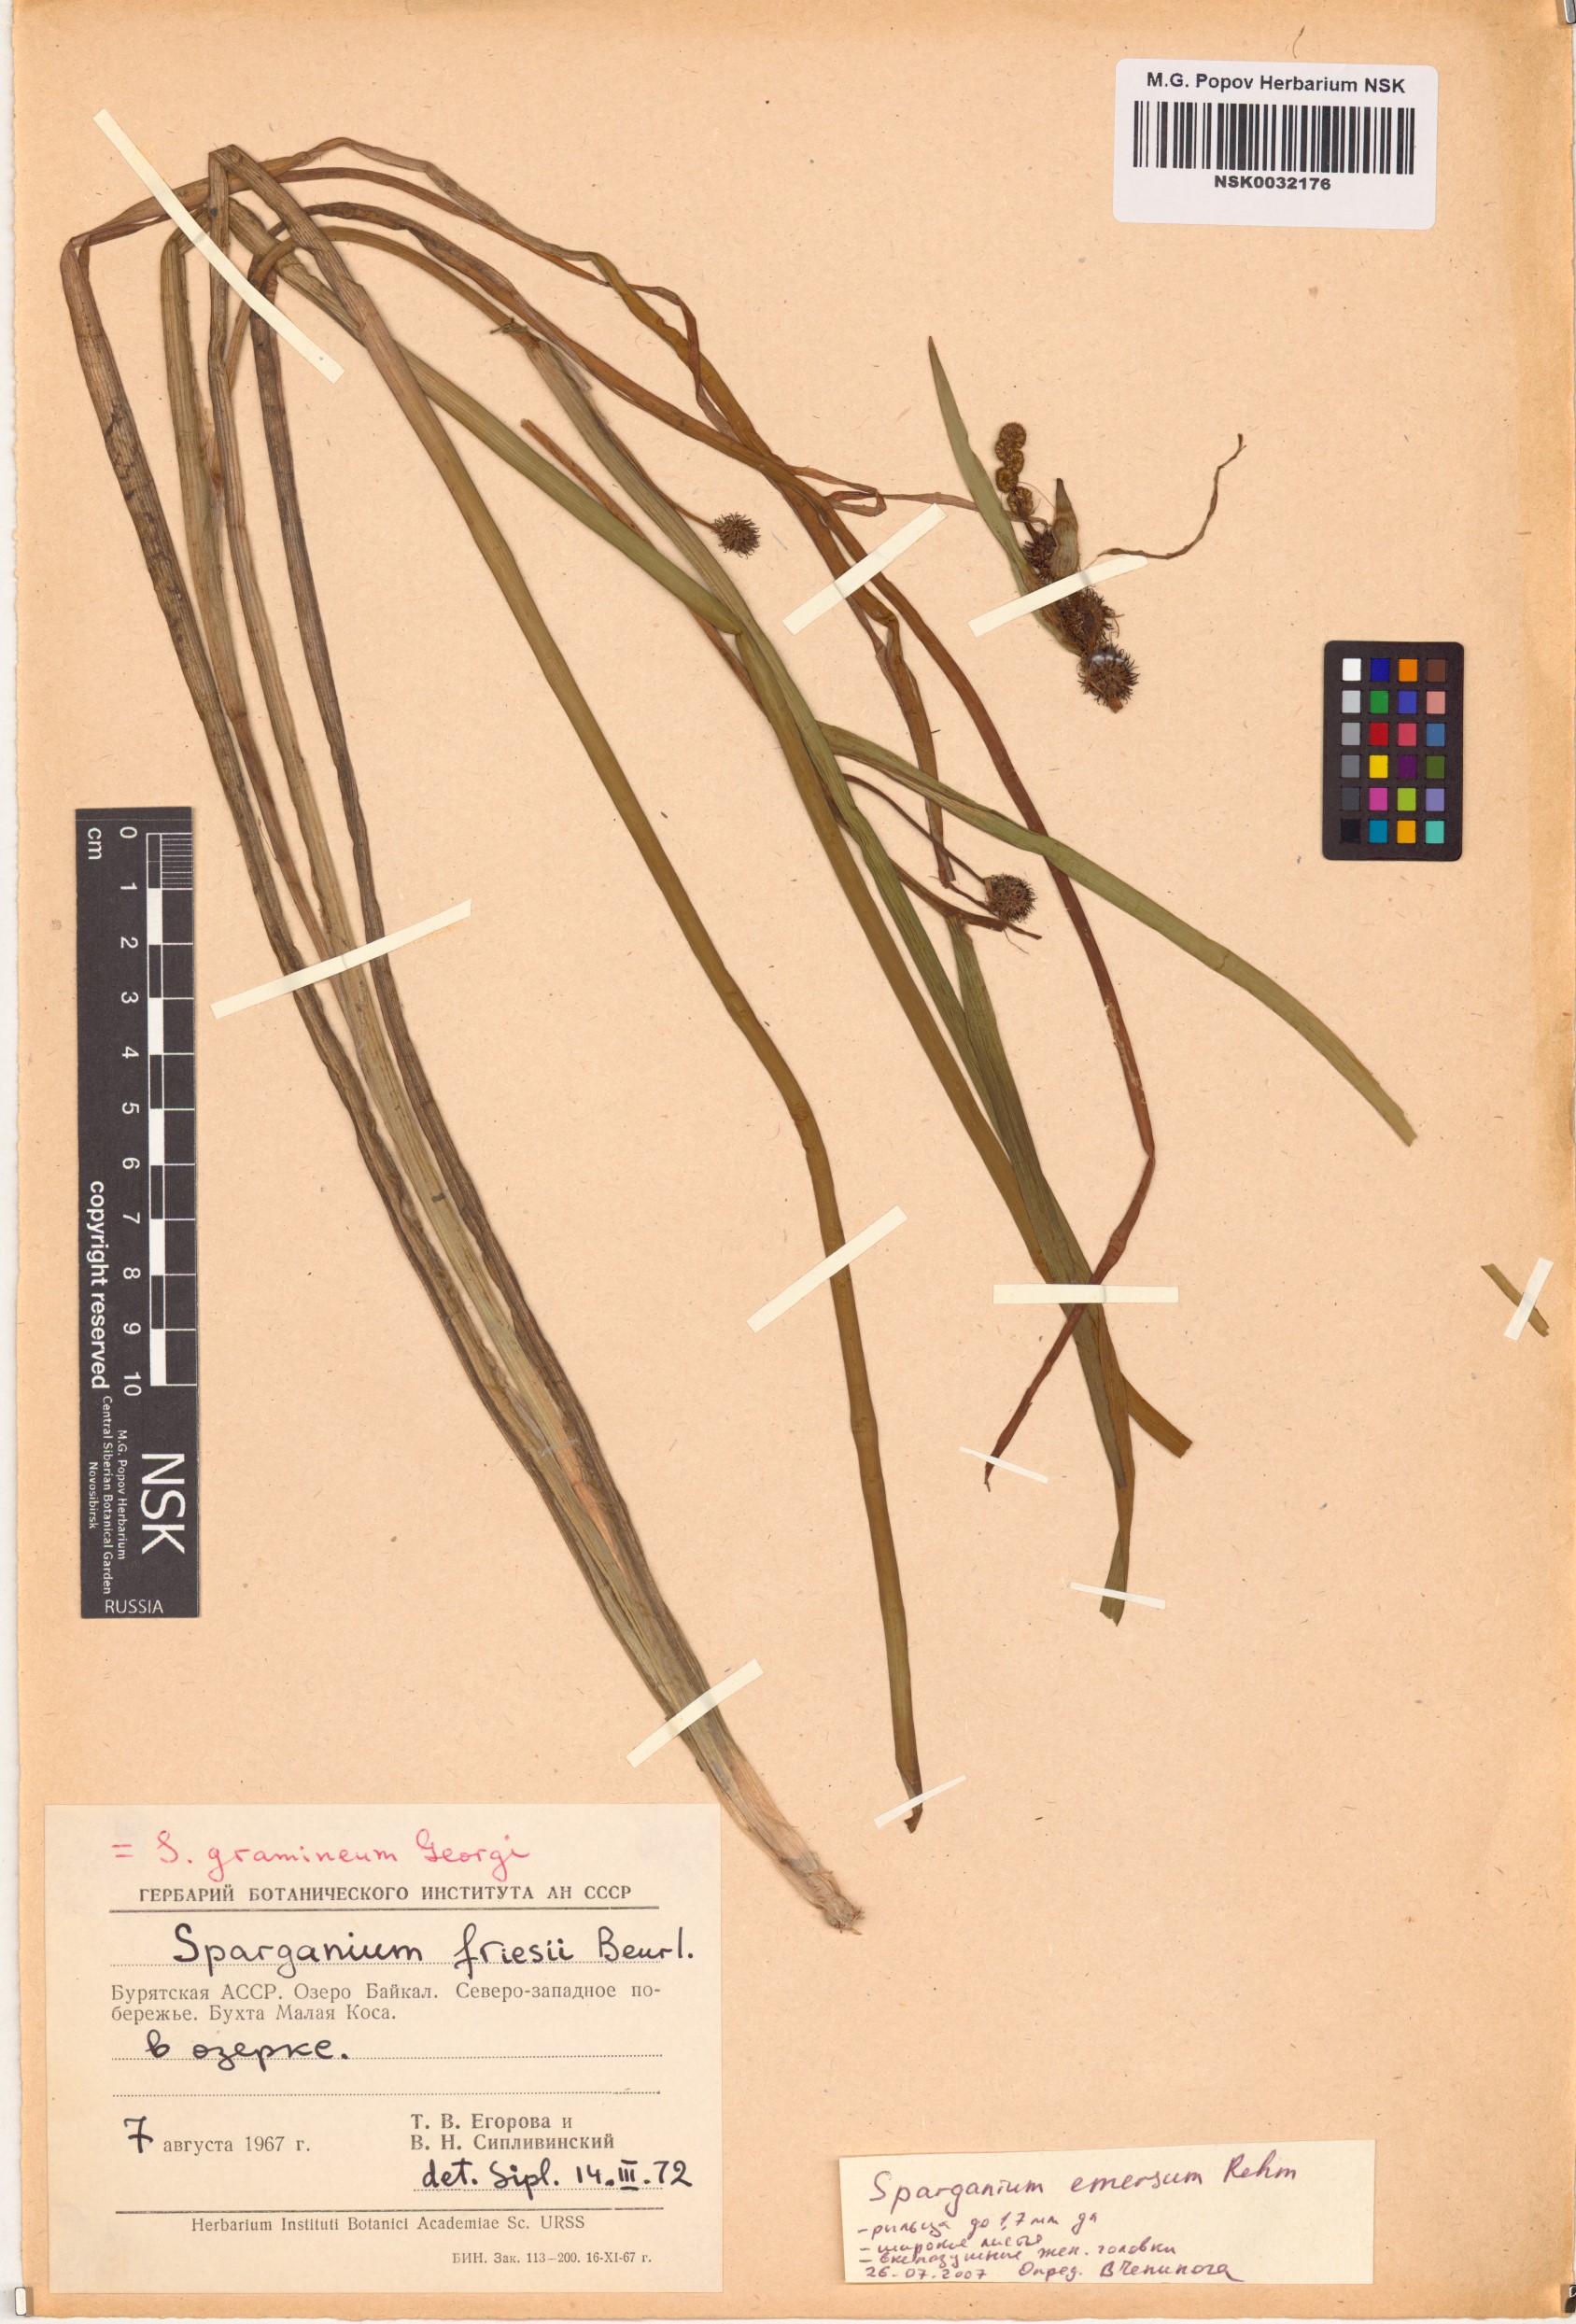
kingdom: Plantae
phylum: Tracheophyta
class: Liliopsida
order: Poales
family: Typhaceae
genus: Sparganium
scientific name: Sparganium emersum
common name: Unbranched bur-reed
